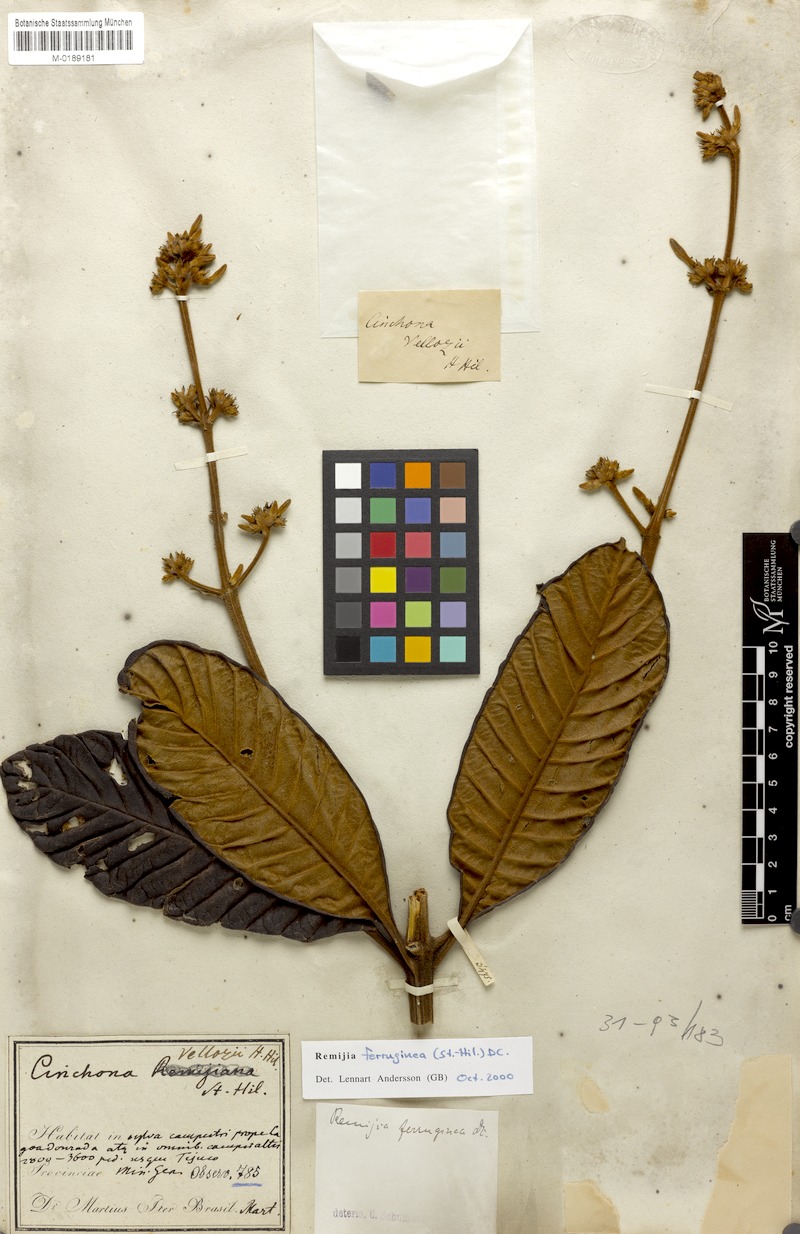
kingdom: Plantae
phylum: Tracheophyta
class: Magnoliopsida
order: Gentianales
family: Rubiaceae
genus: Remijia
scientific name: Remijia ferruginea
